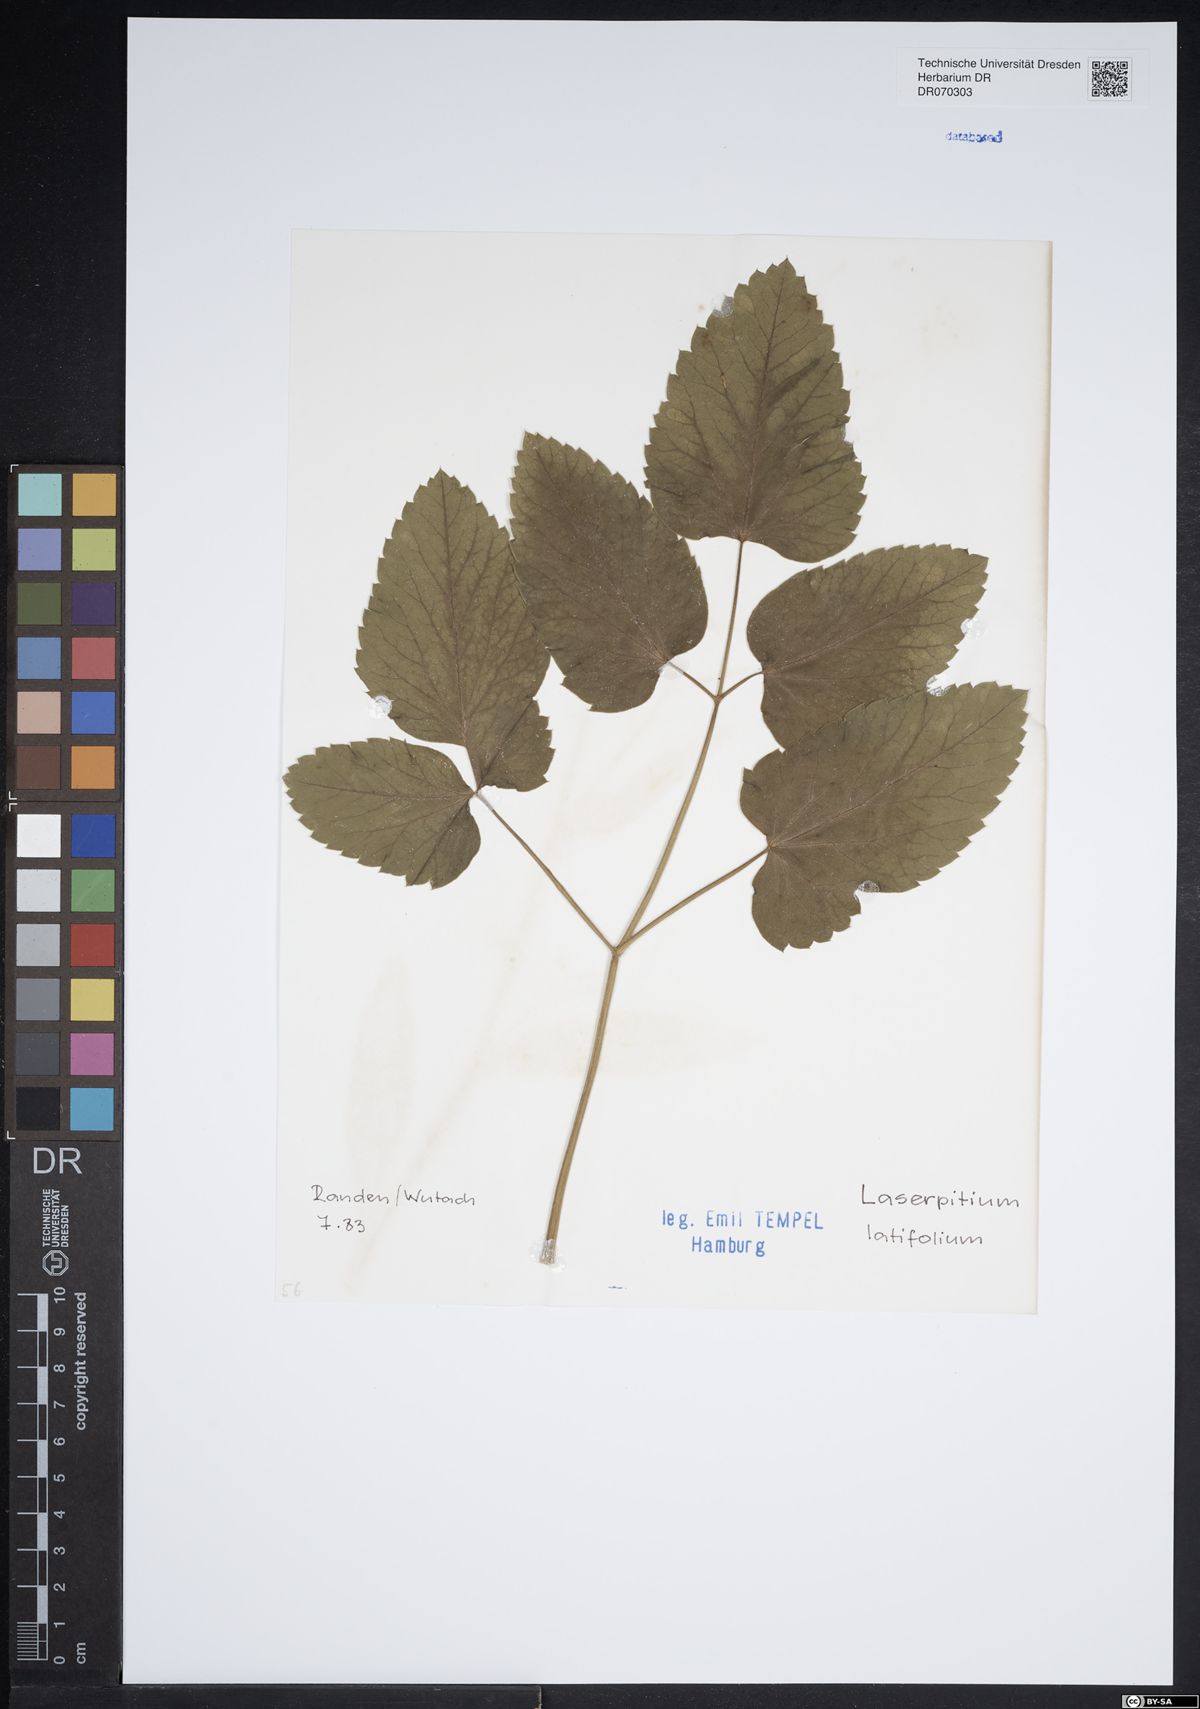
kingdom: Plantae
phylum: Tracheophyta
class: Magnoliopsida
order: Apiales
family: Apiaceae
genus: Laserpitium
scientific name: Laserpitium latifolium
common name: Broadleaf sermountain
